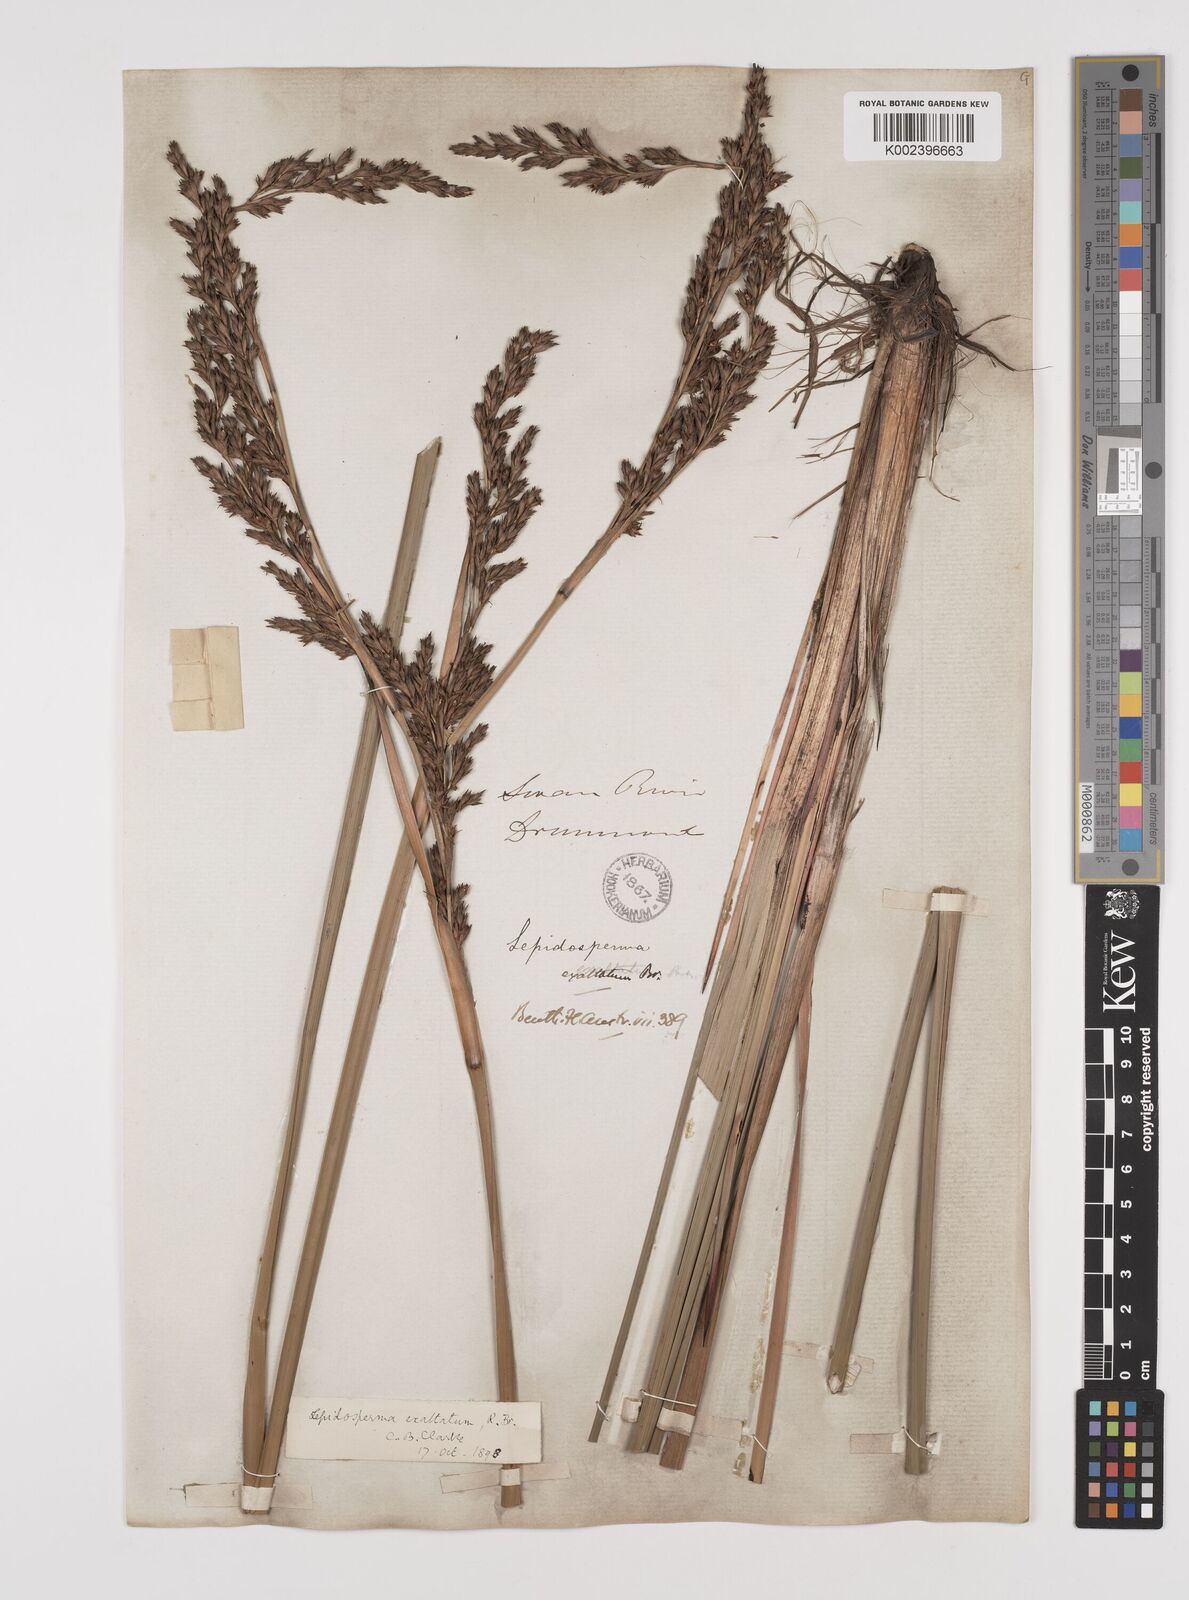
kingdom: Plantae
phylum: Tracheophyta
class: Liliopsida
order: Poales
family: Cyperaceae
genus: Lepidosperma
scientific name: Lepidosperma longitudinale
